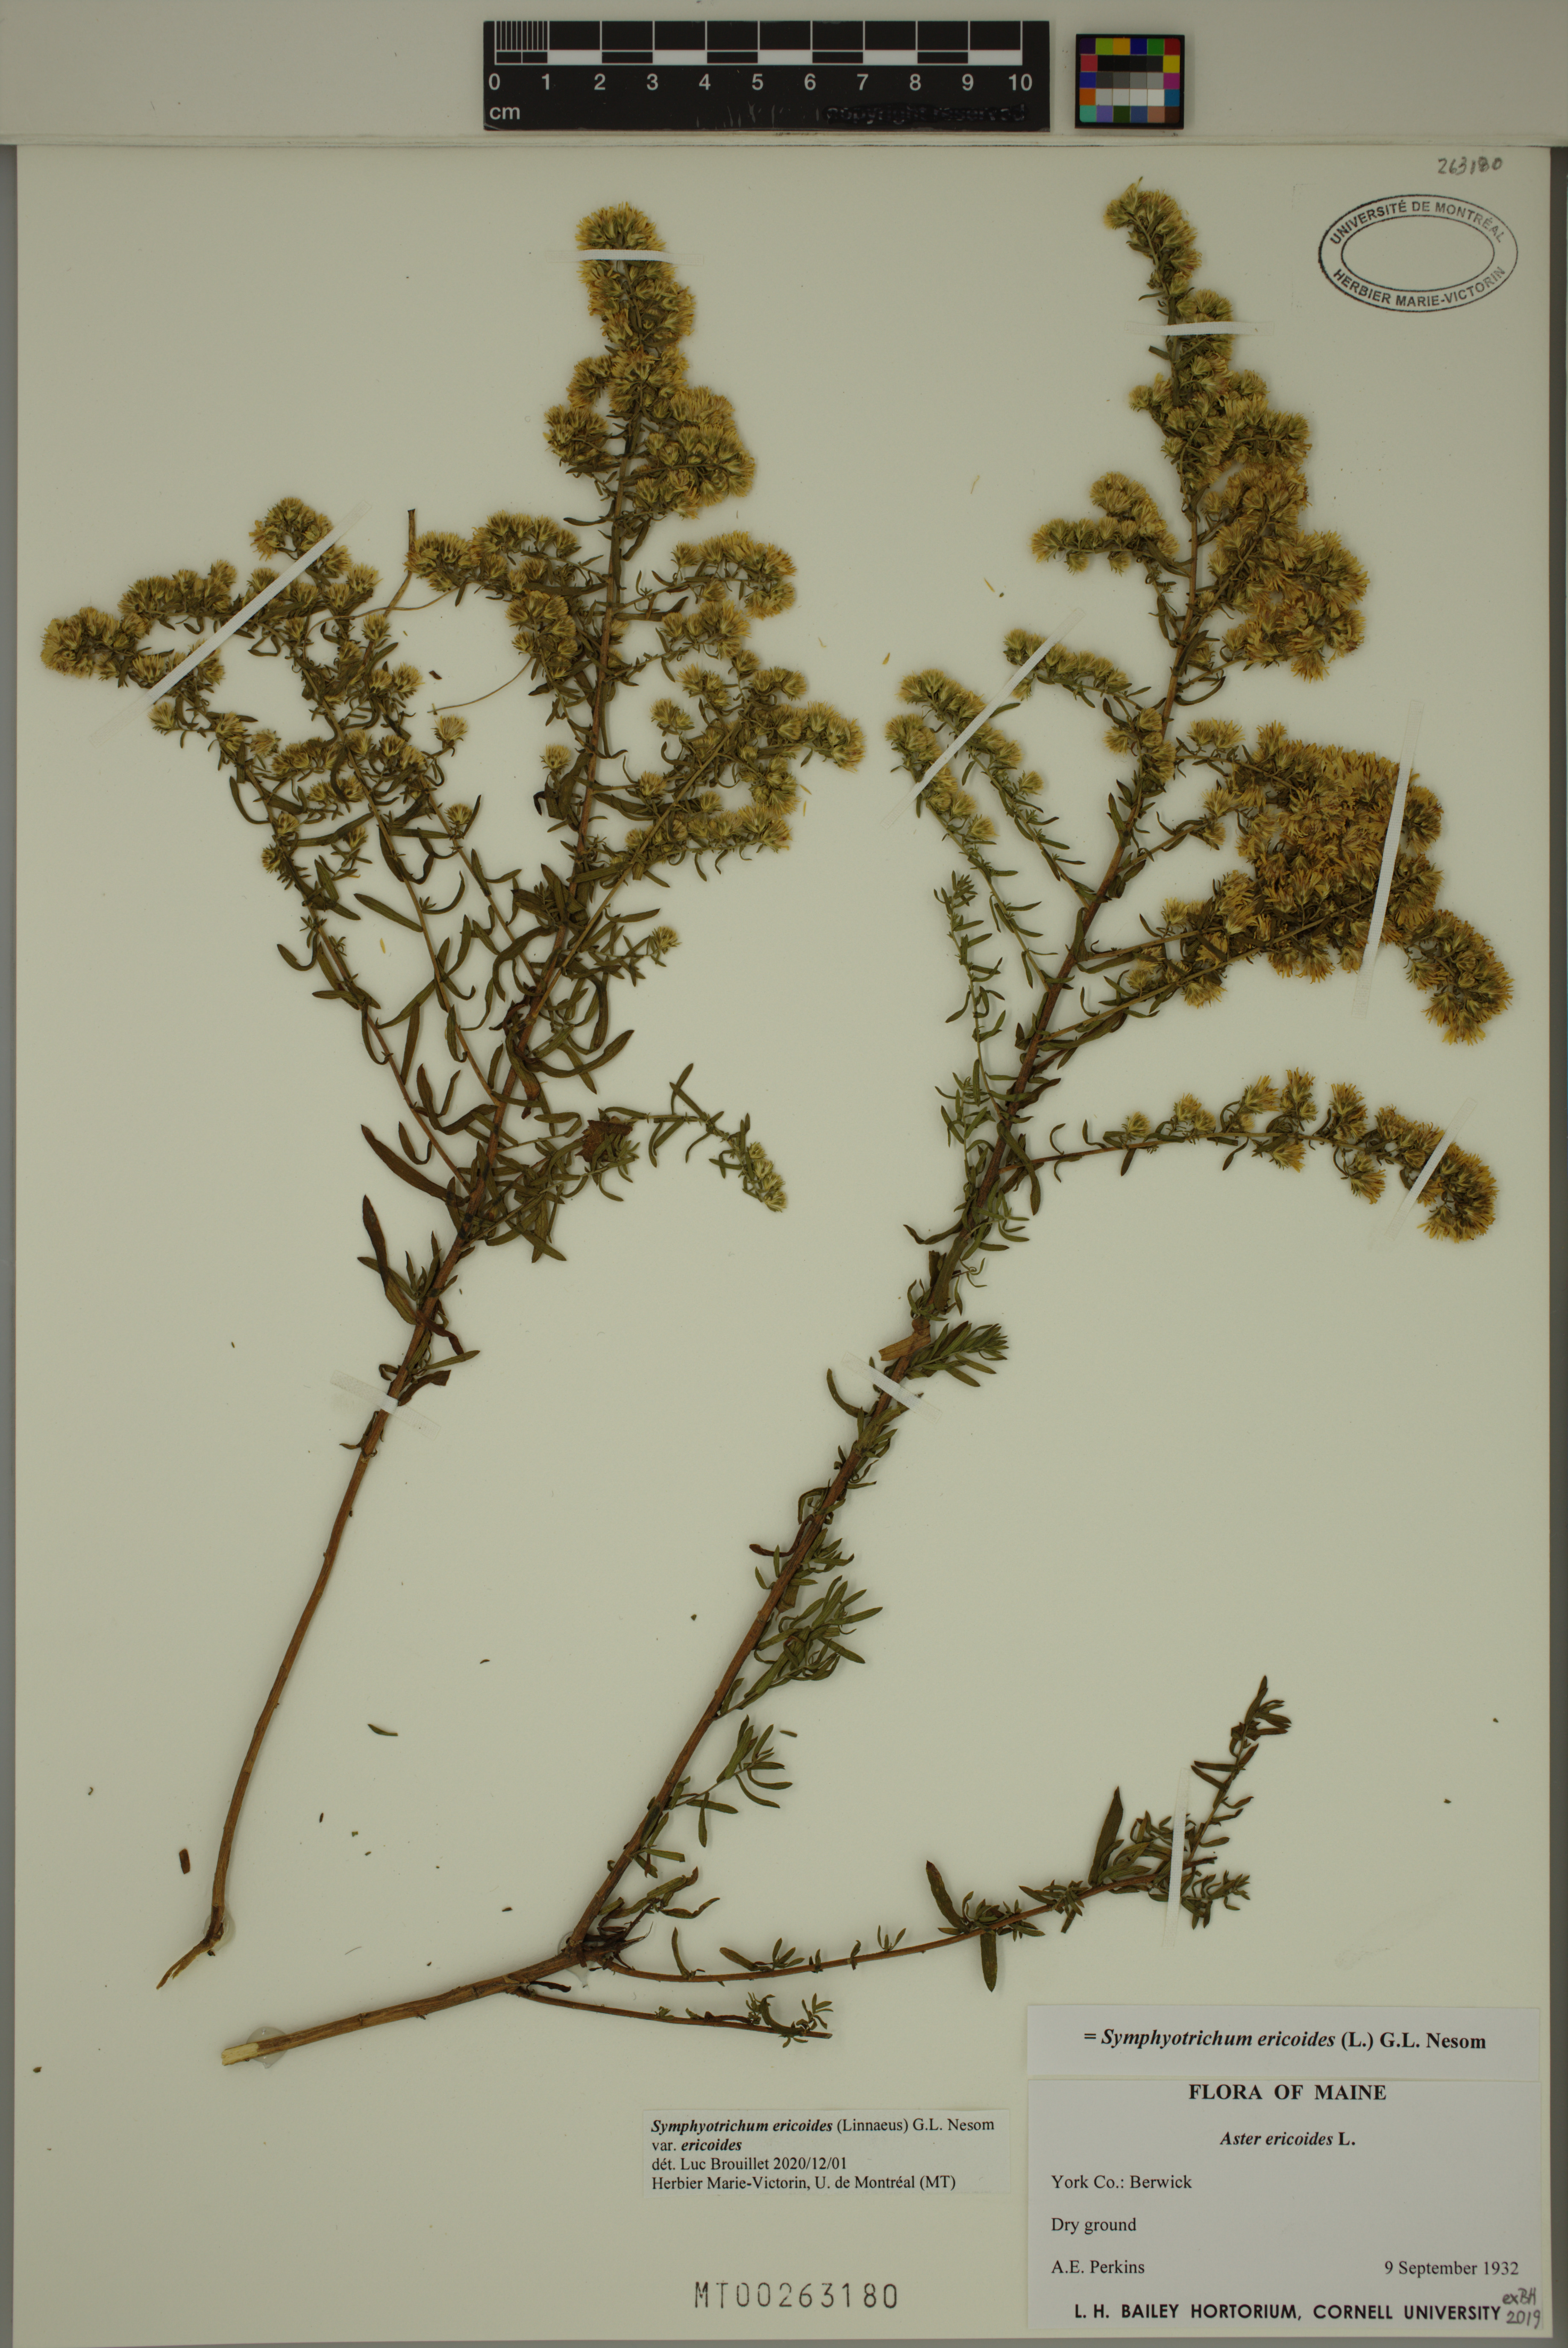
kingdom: Plantae
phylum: Tracheophyta
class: Magnoliopsida
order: Asterales
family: Asteraceae
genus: Symphyotrichum
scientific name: Symphyotrichum ericoides
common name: Heath aster
